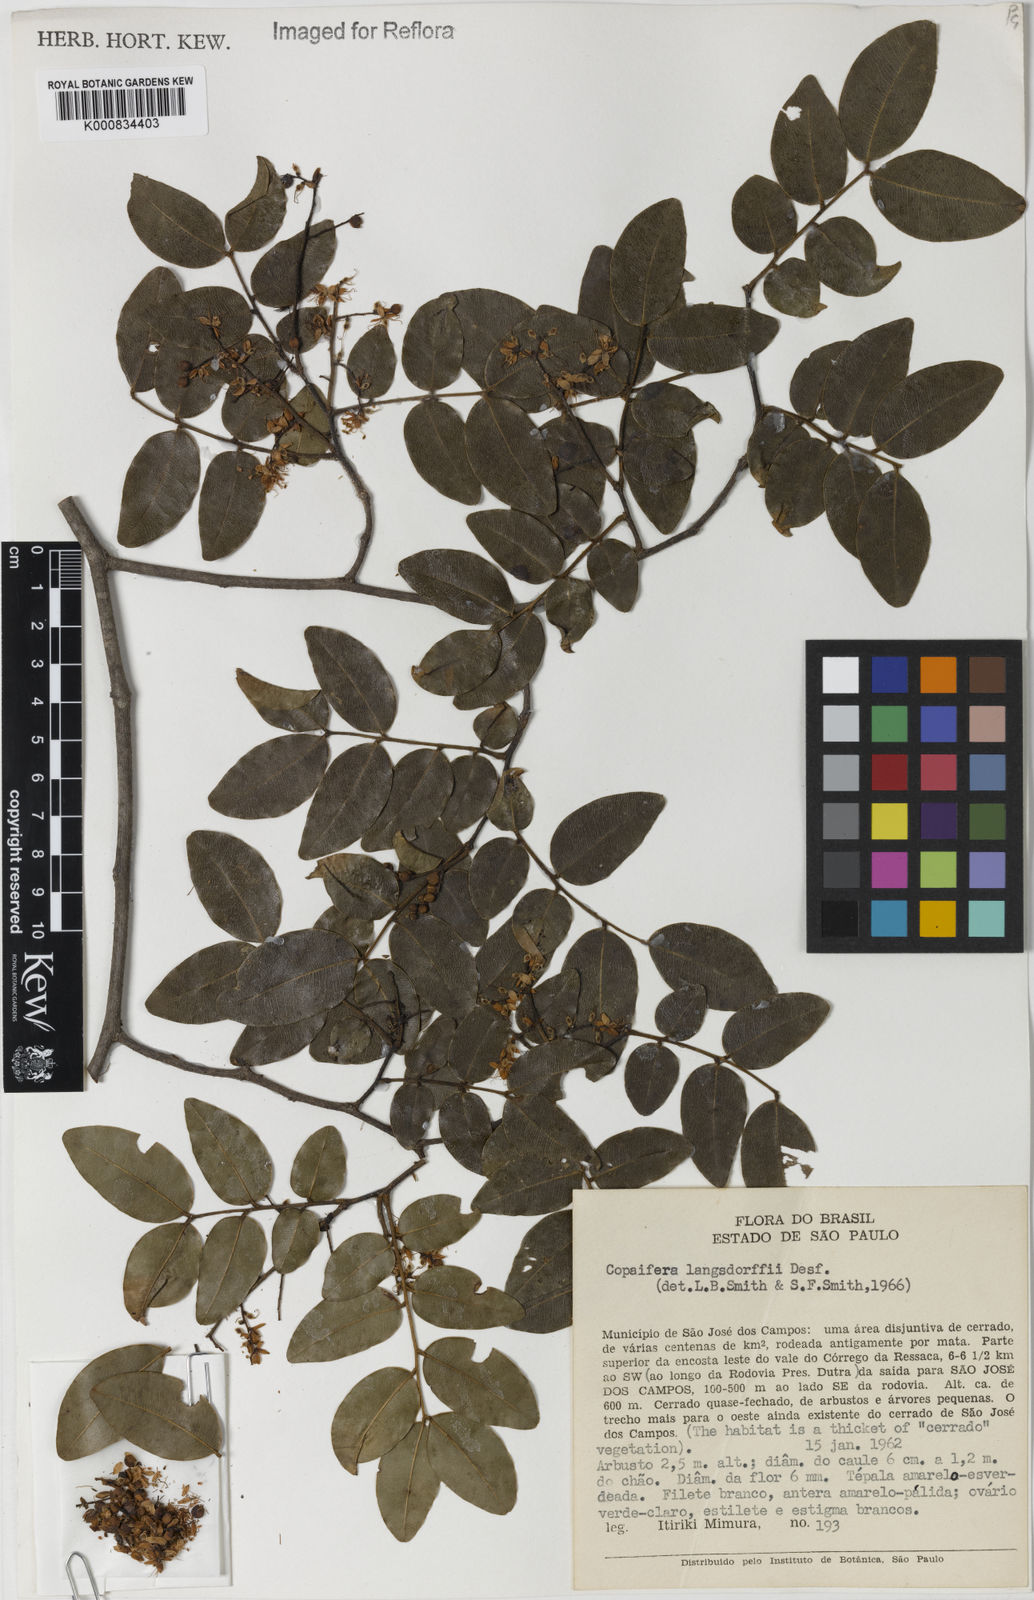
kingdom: Plantae
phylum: Tracheophyta
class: Magnoliopsida
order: Fabales
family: Fabaceae
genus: Copaifera
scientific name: Copaifera langsdorffii
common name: Brazilian diesel tree
